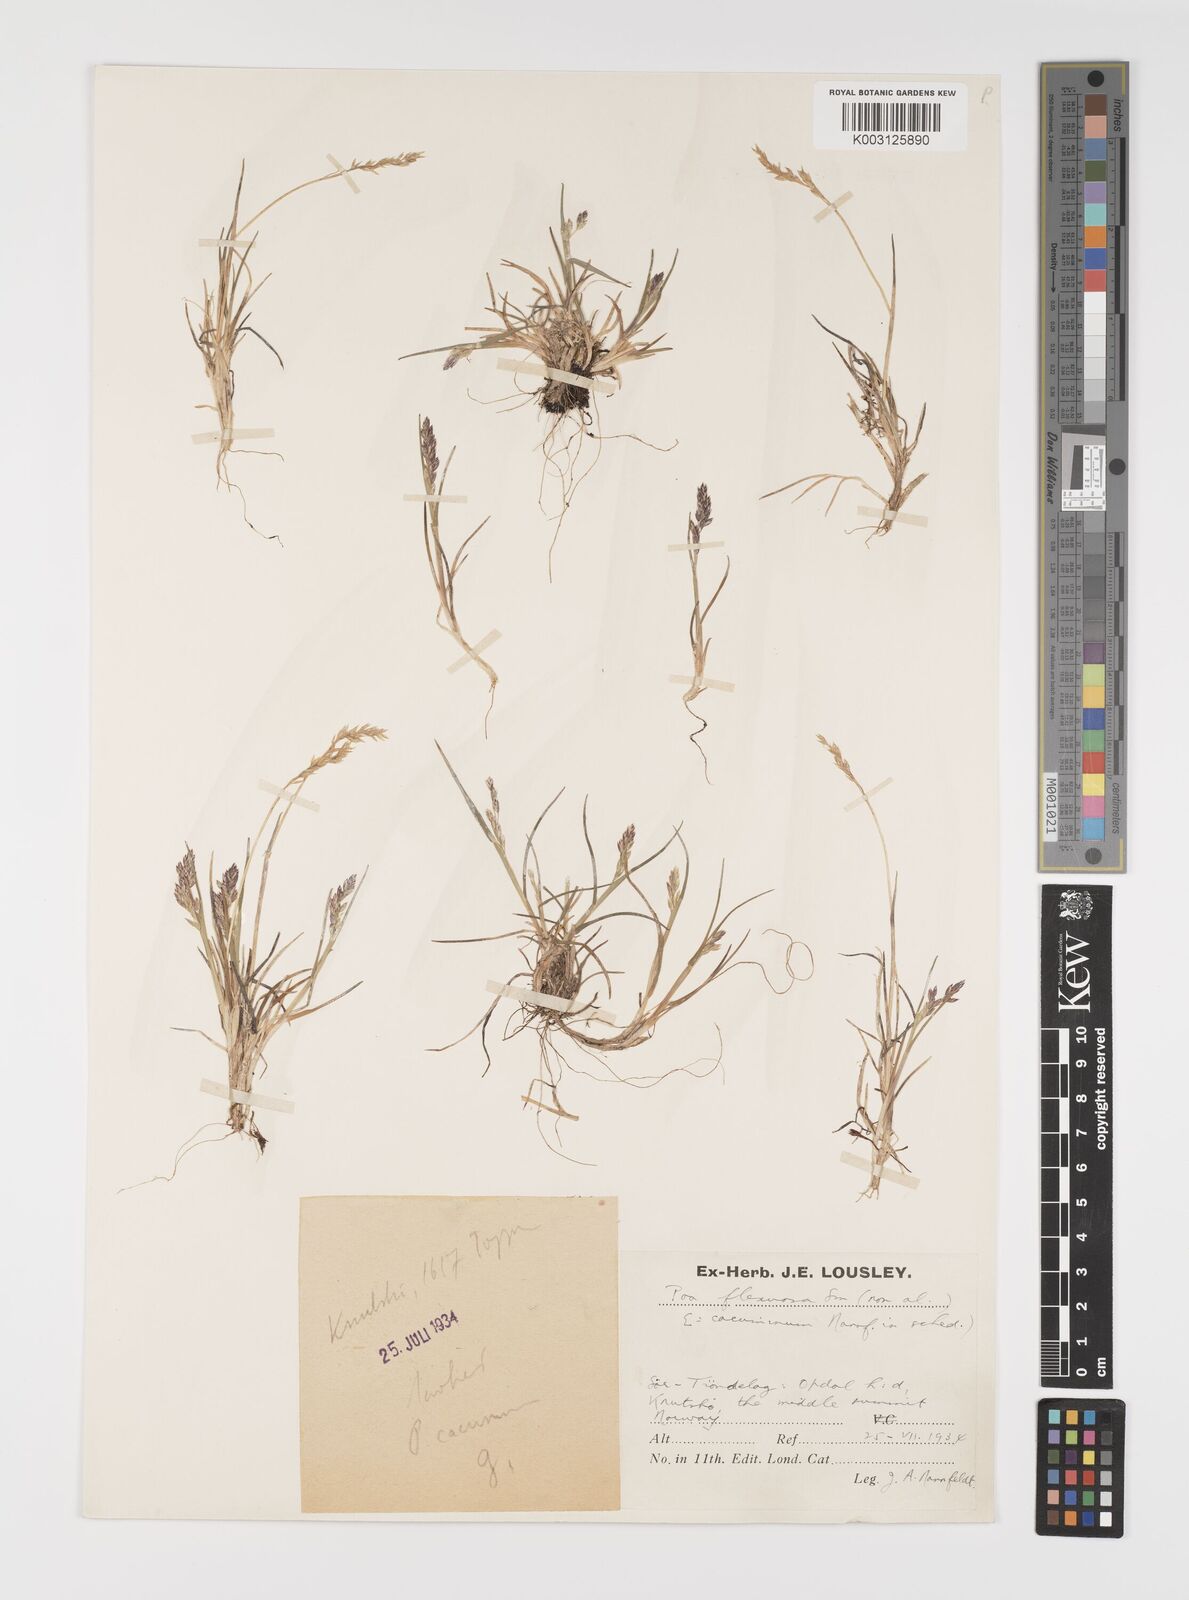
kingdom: Plantae
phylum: Tracheophyta
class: Liliopsida
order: Poales
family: Poaceae
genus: Eragrostis
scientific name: Eragrostis cilianensis
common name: Stinkgrass
